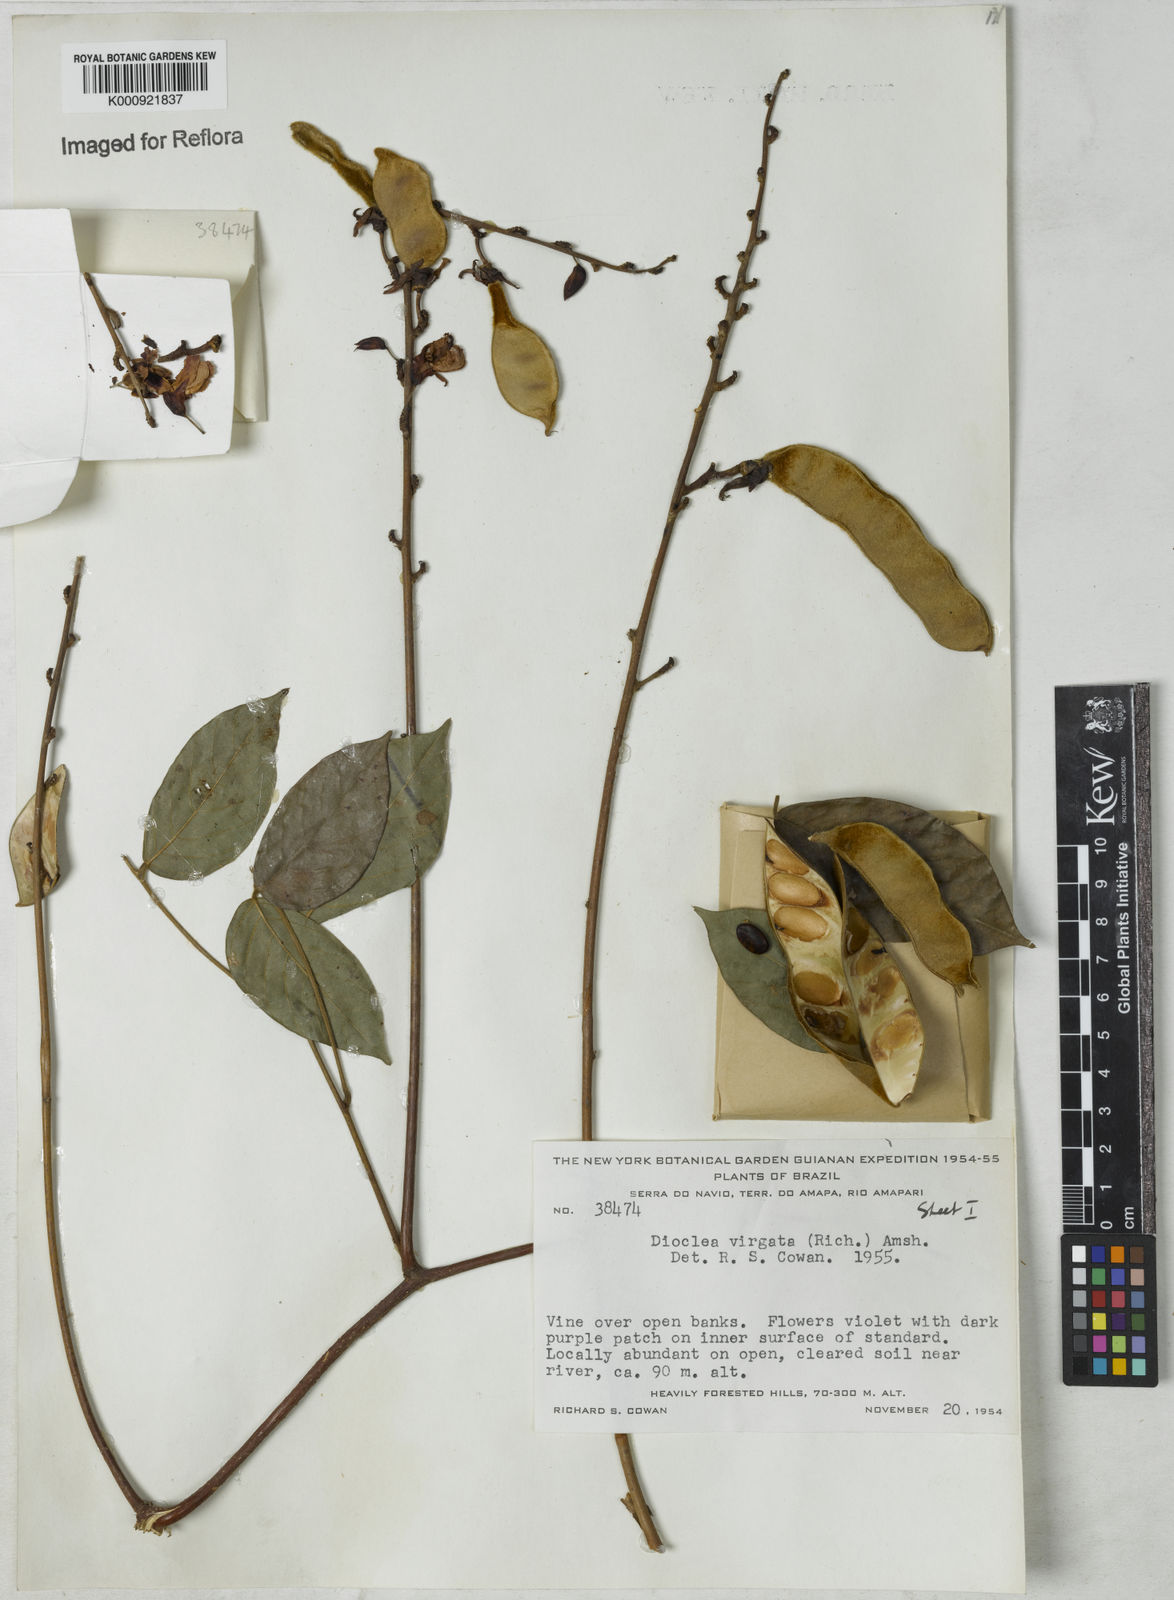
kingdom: Plantae
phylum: Tracheophyta
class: Magnoliopsida
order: Fabales
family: Fabaceae
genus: Dioclea
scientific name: Dioclea virgata
